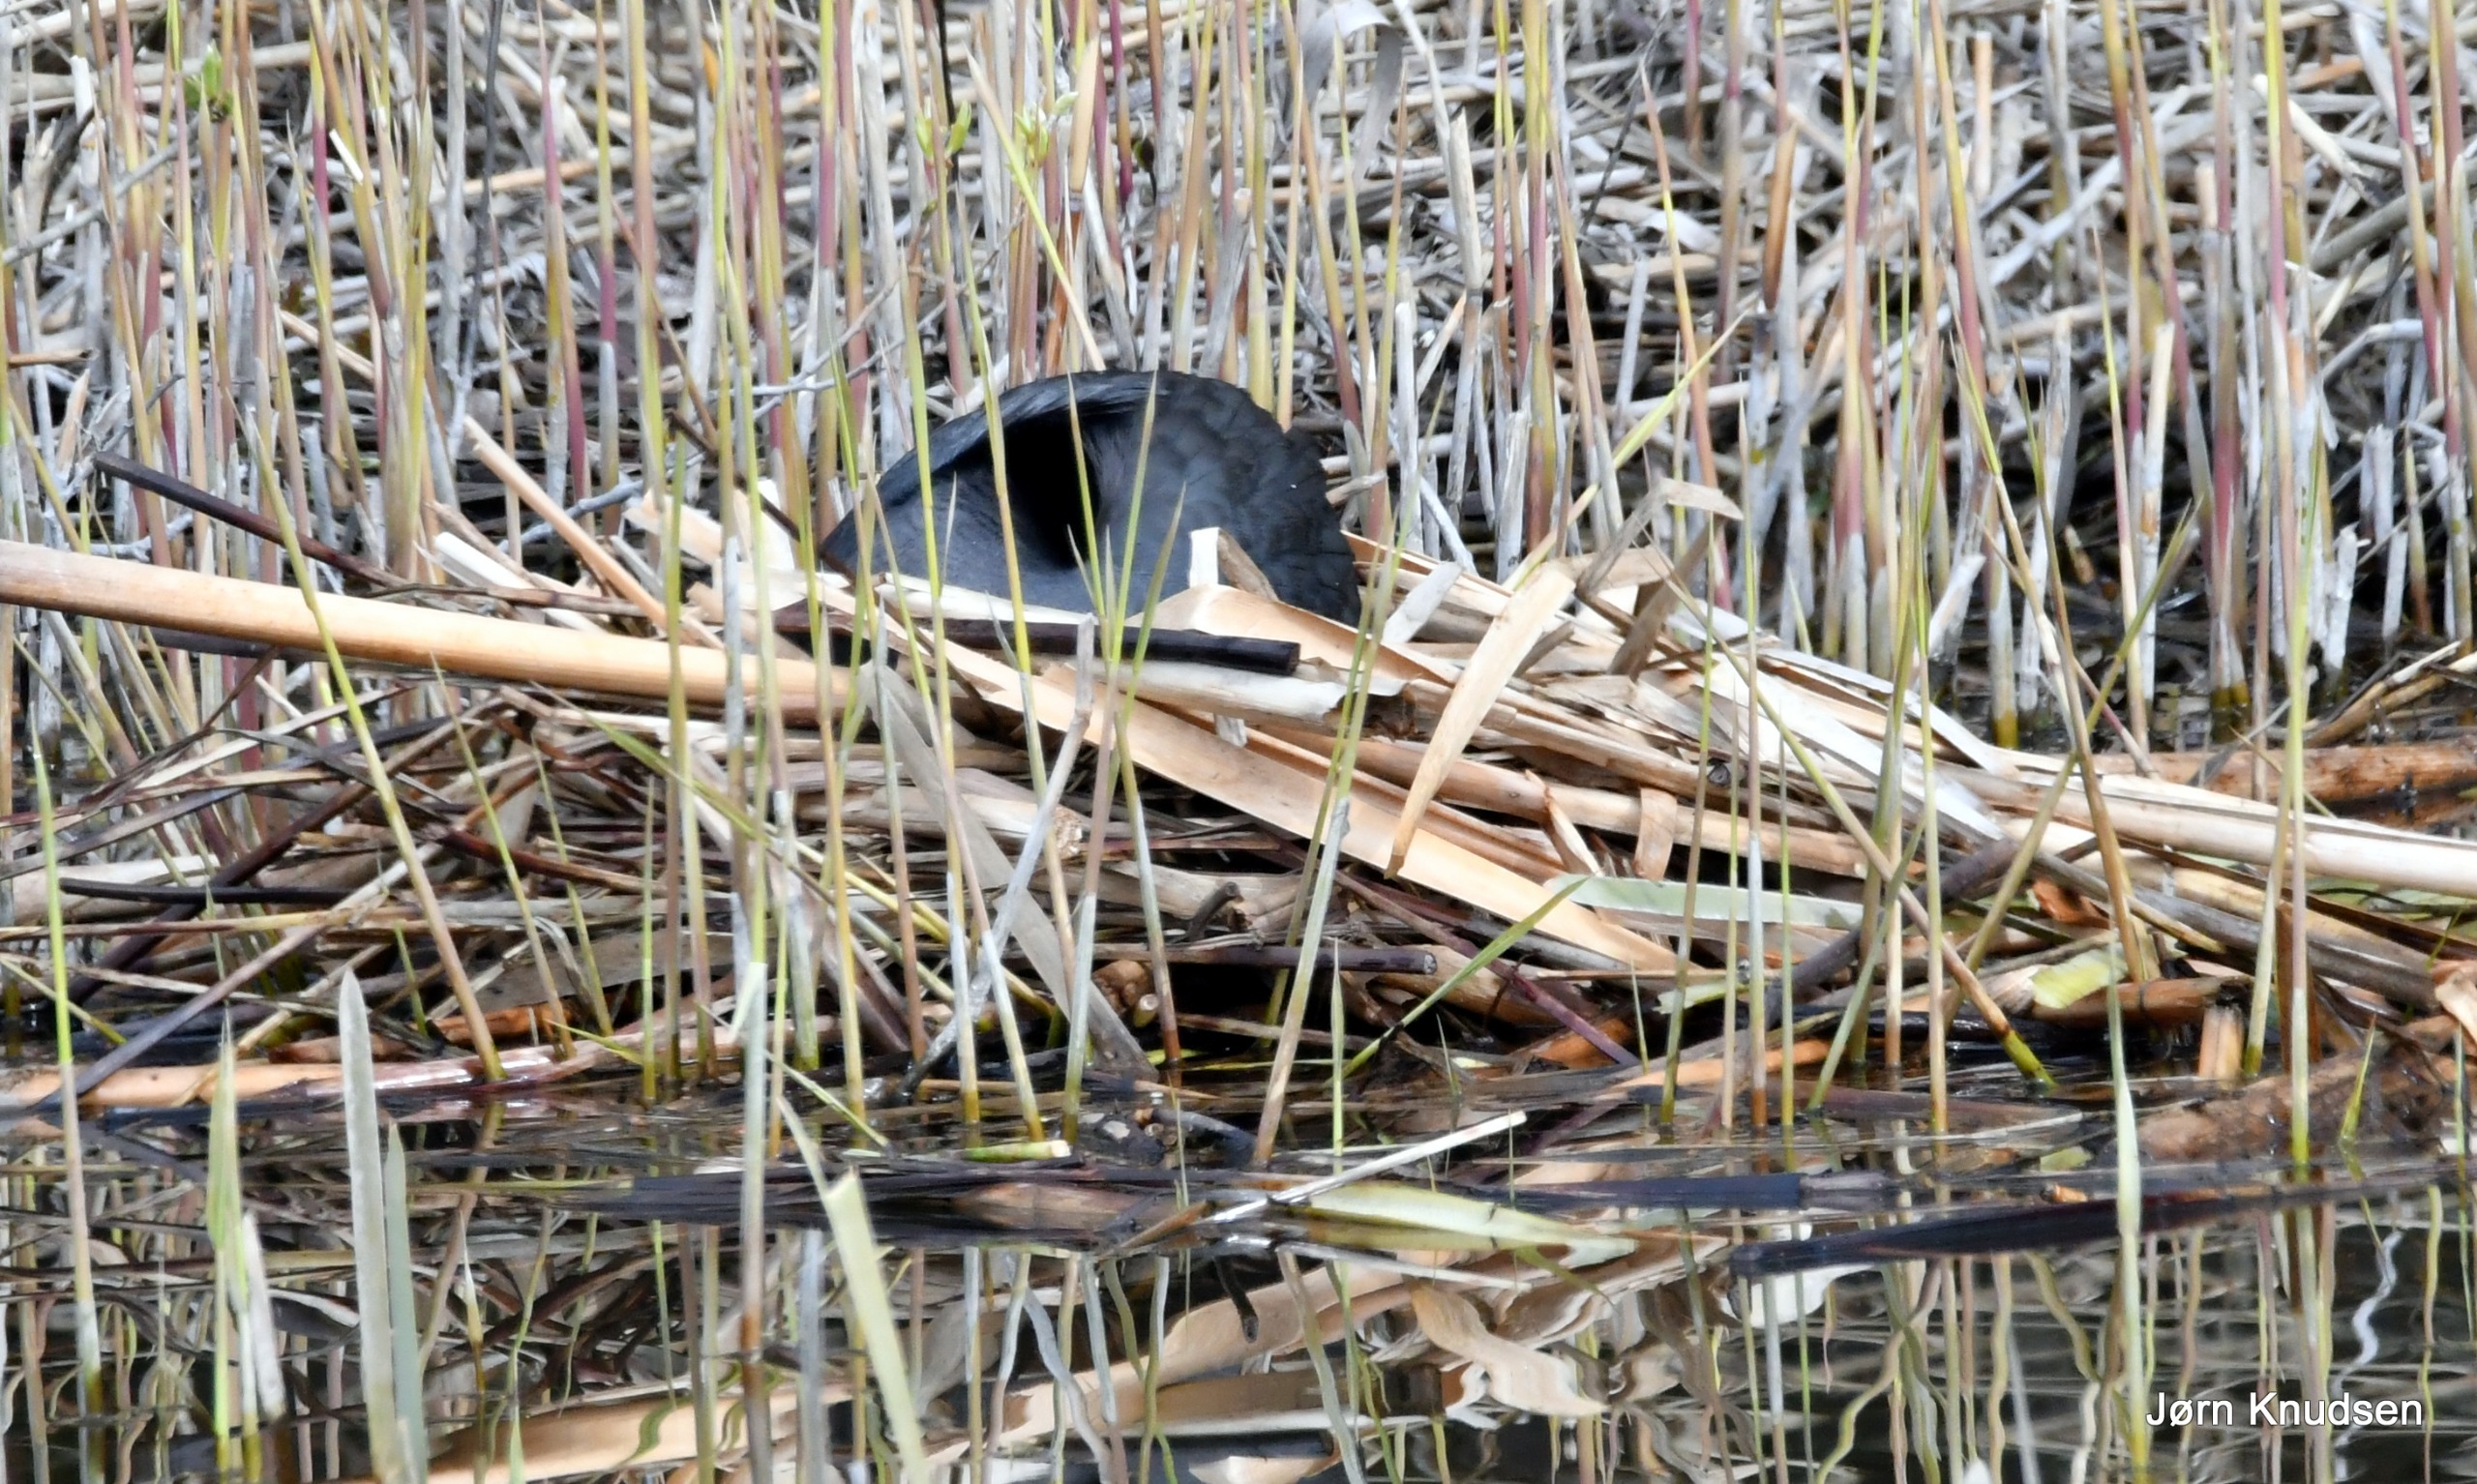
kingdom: Animalia
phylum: Chordata
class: Aves
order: Gruiformes
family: Rallidae
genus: Fulica
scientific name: Fulica atra
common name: Blishøne
